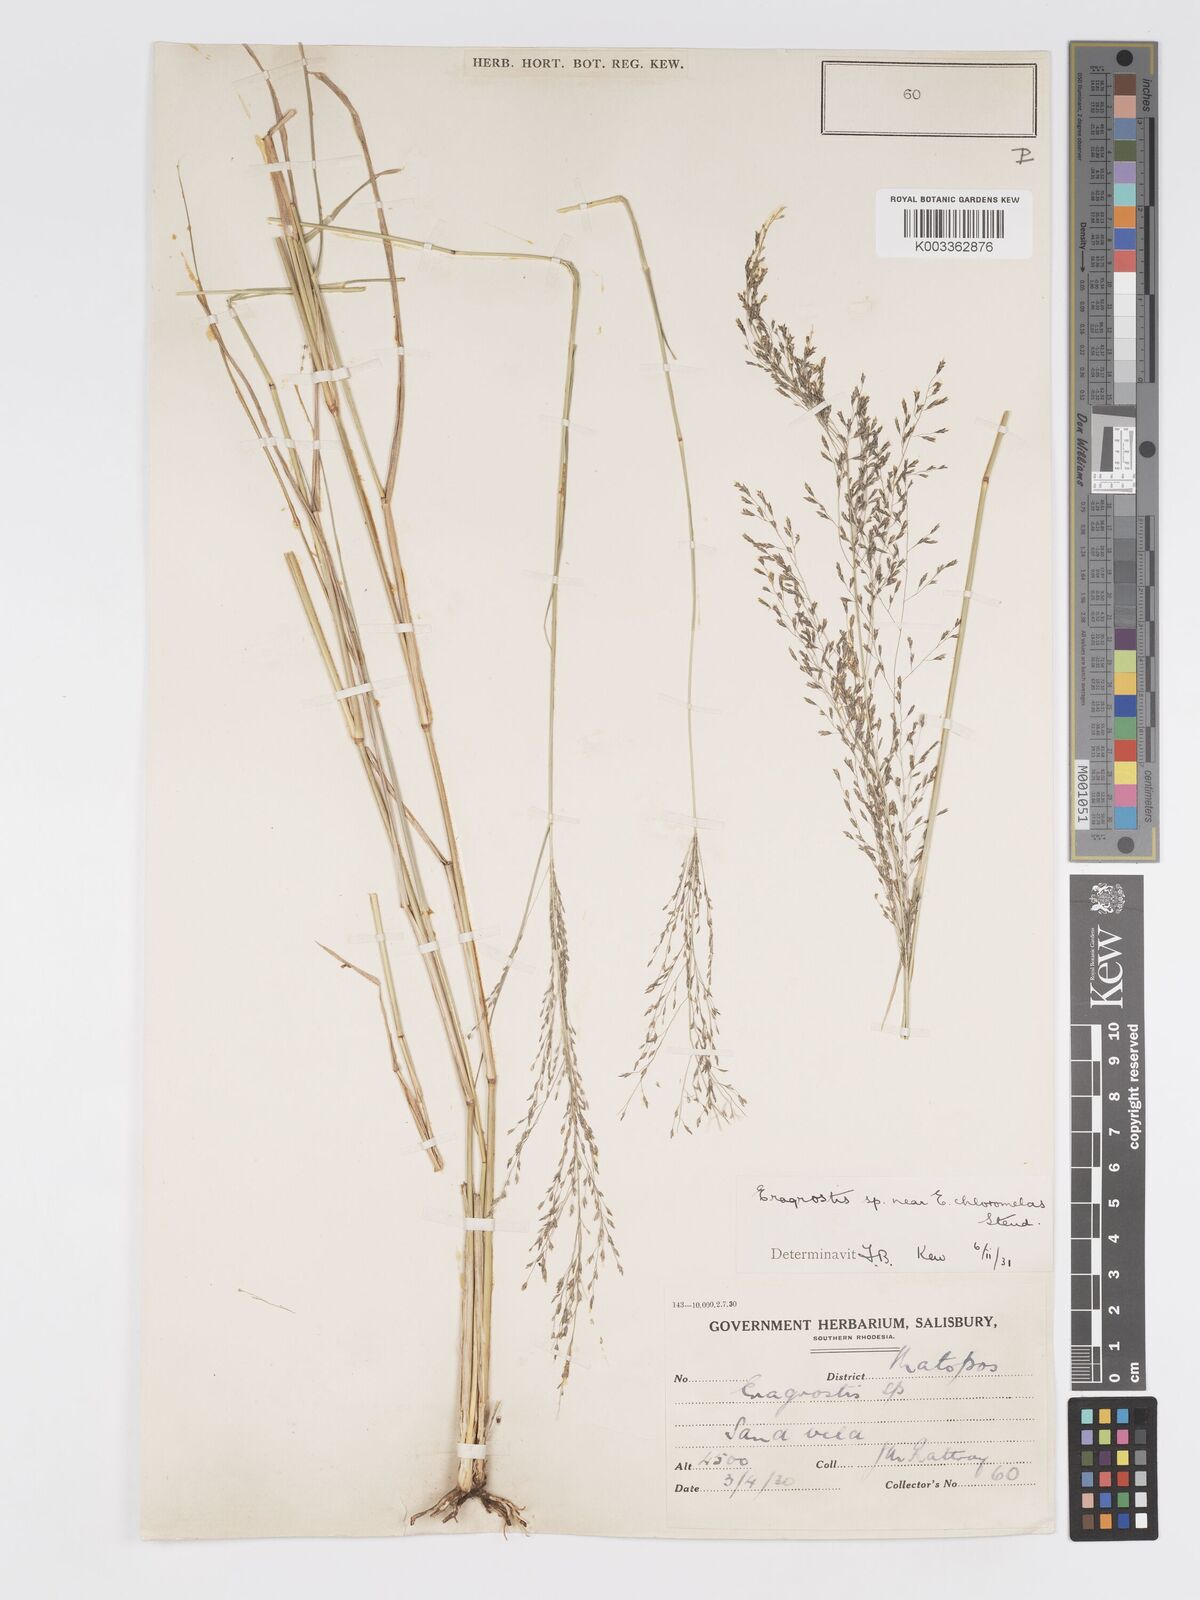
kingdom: Plantae
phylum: Tracheophyta
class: Liliopsida
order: Poales
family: Poaceae
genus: Eragrostis
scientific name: Eragrostis cylindriflora
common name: Cylinderflower lovegrass
